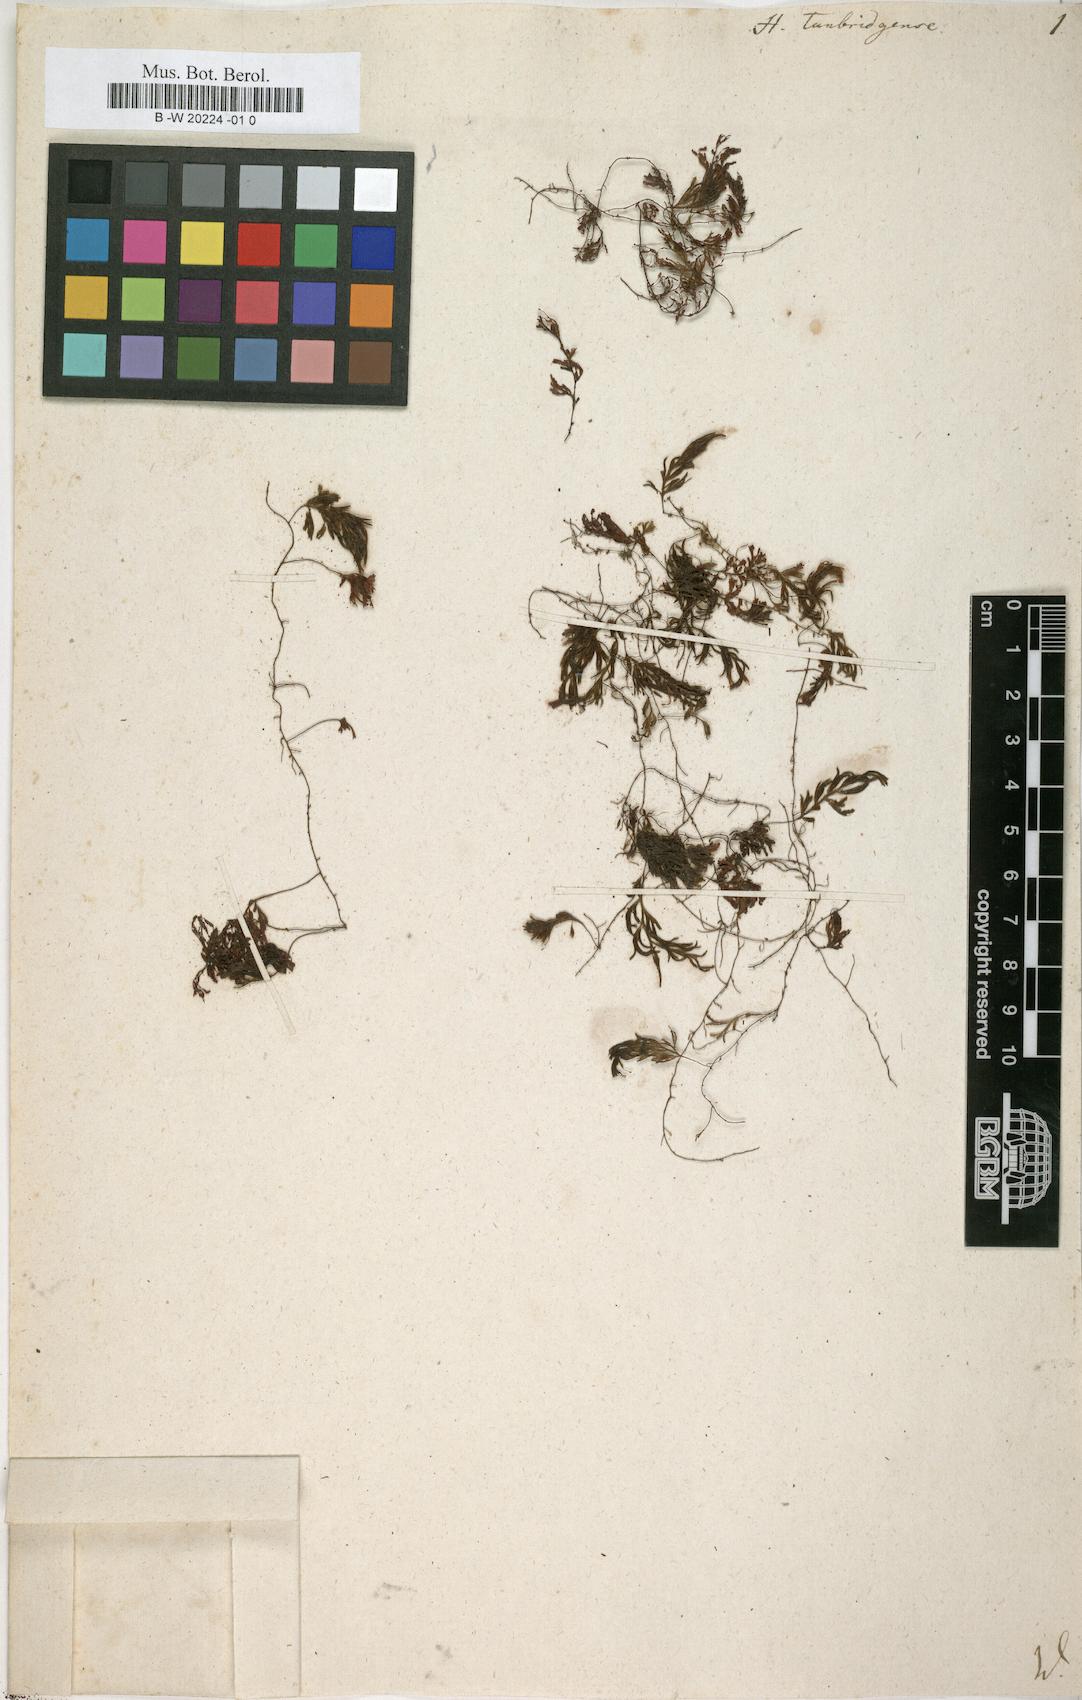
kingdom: Plantae
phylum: Tracheophyta
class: Polypodiopsida
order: Hymenophyllales
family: Hymenophyllaceae
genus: Hymenophyllum
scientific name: Hymenophyllum tunbrigense
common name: Tunbridge filmy fern
